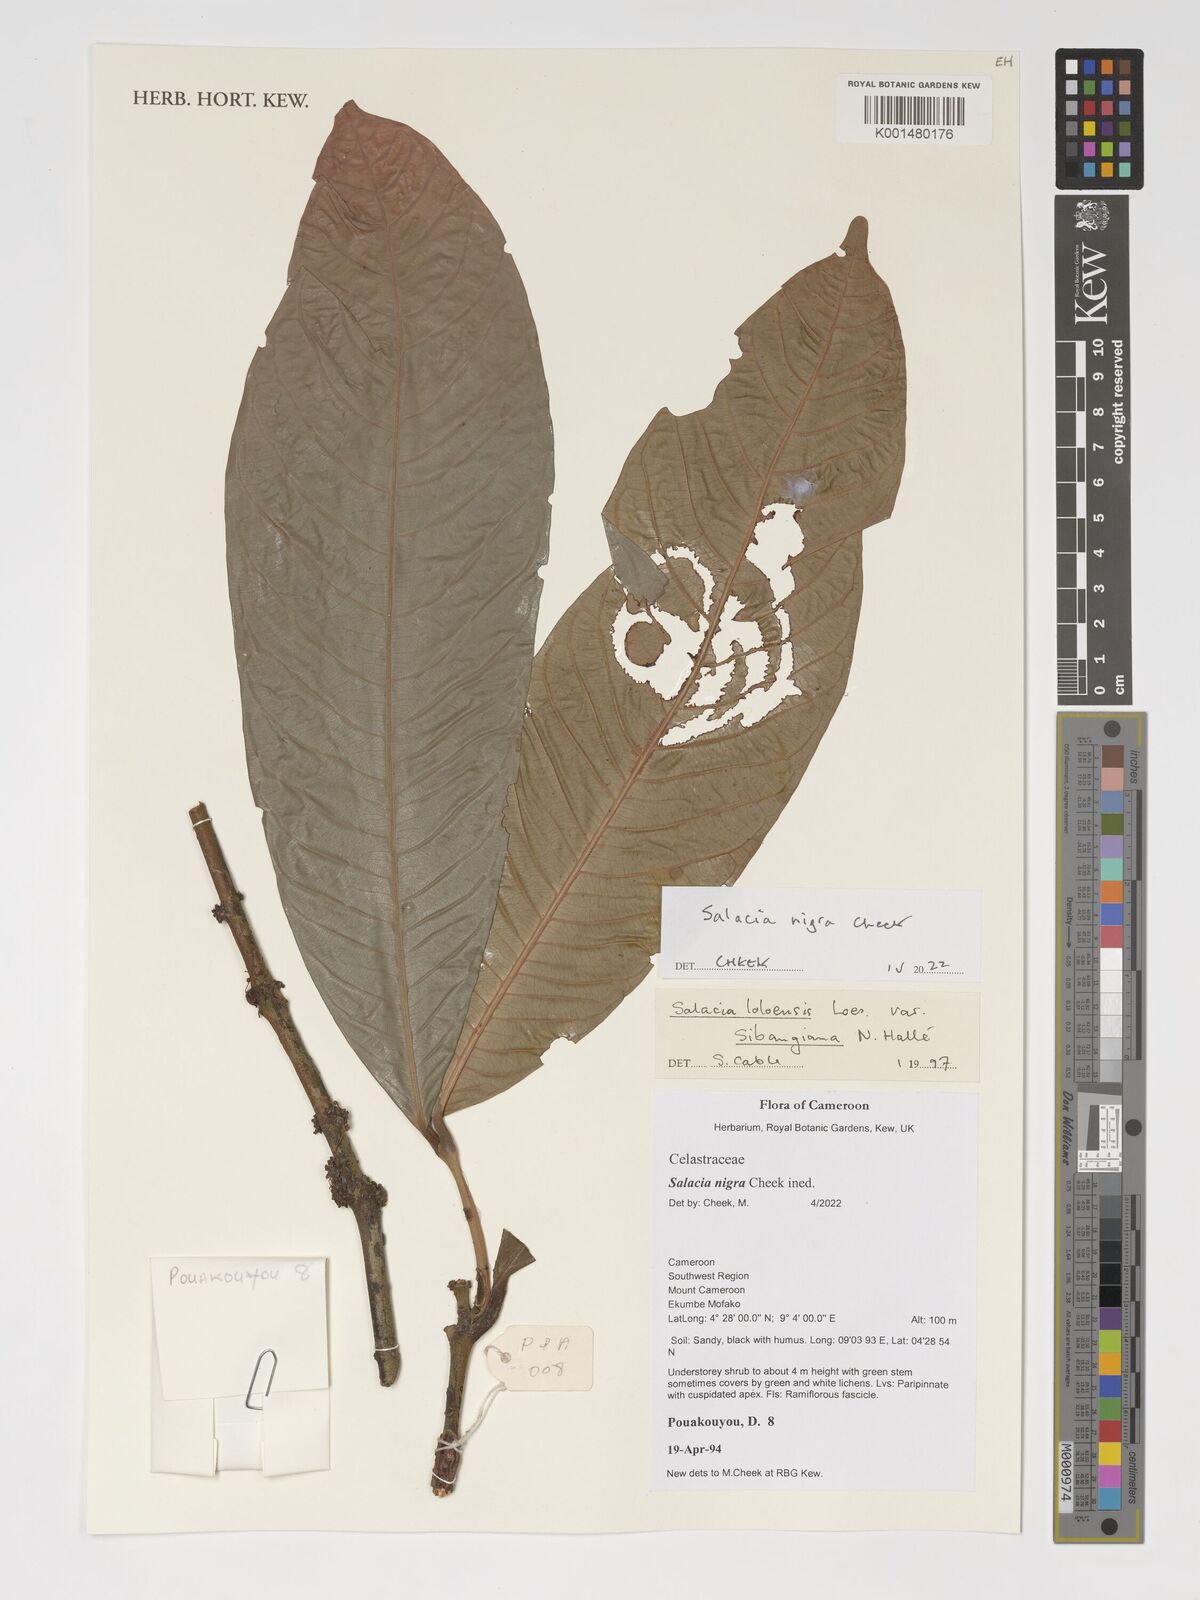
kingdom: Plantae
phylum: Tracheophyta
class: Magnoliopsida
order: Celastrales
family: Celastraceae
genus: Salacia
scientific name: Salacia nigra
